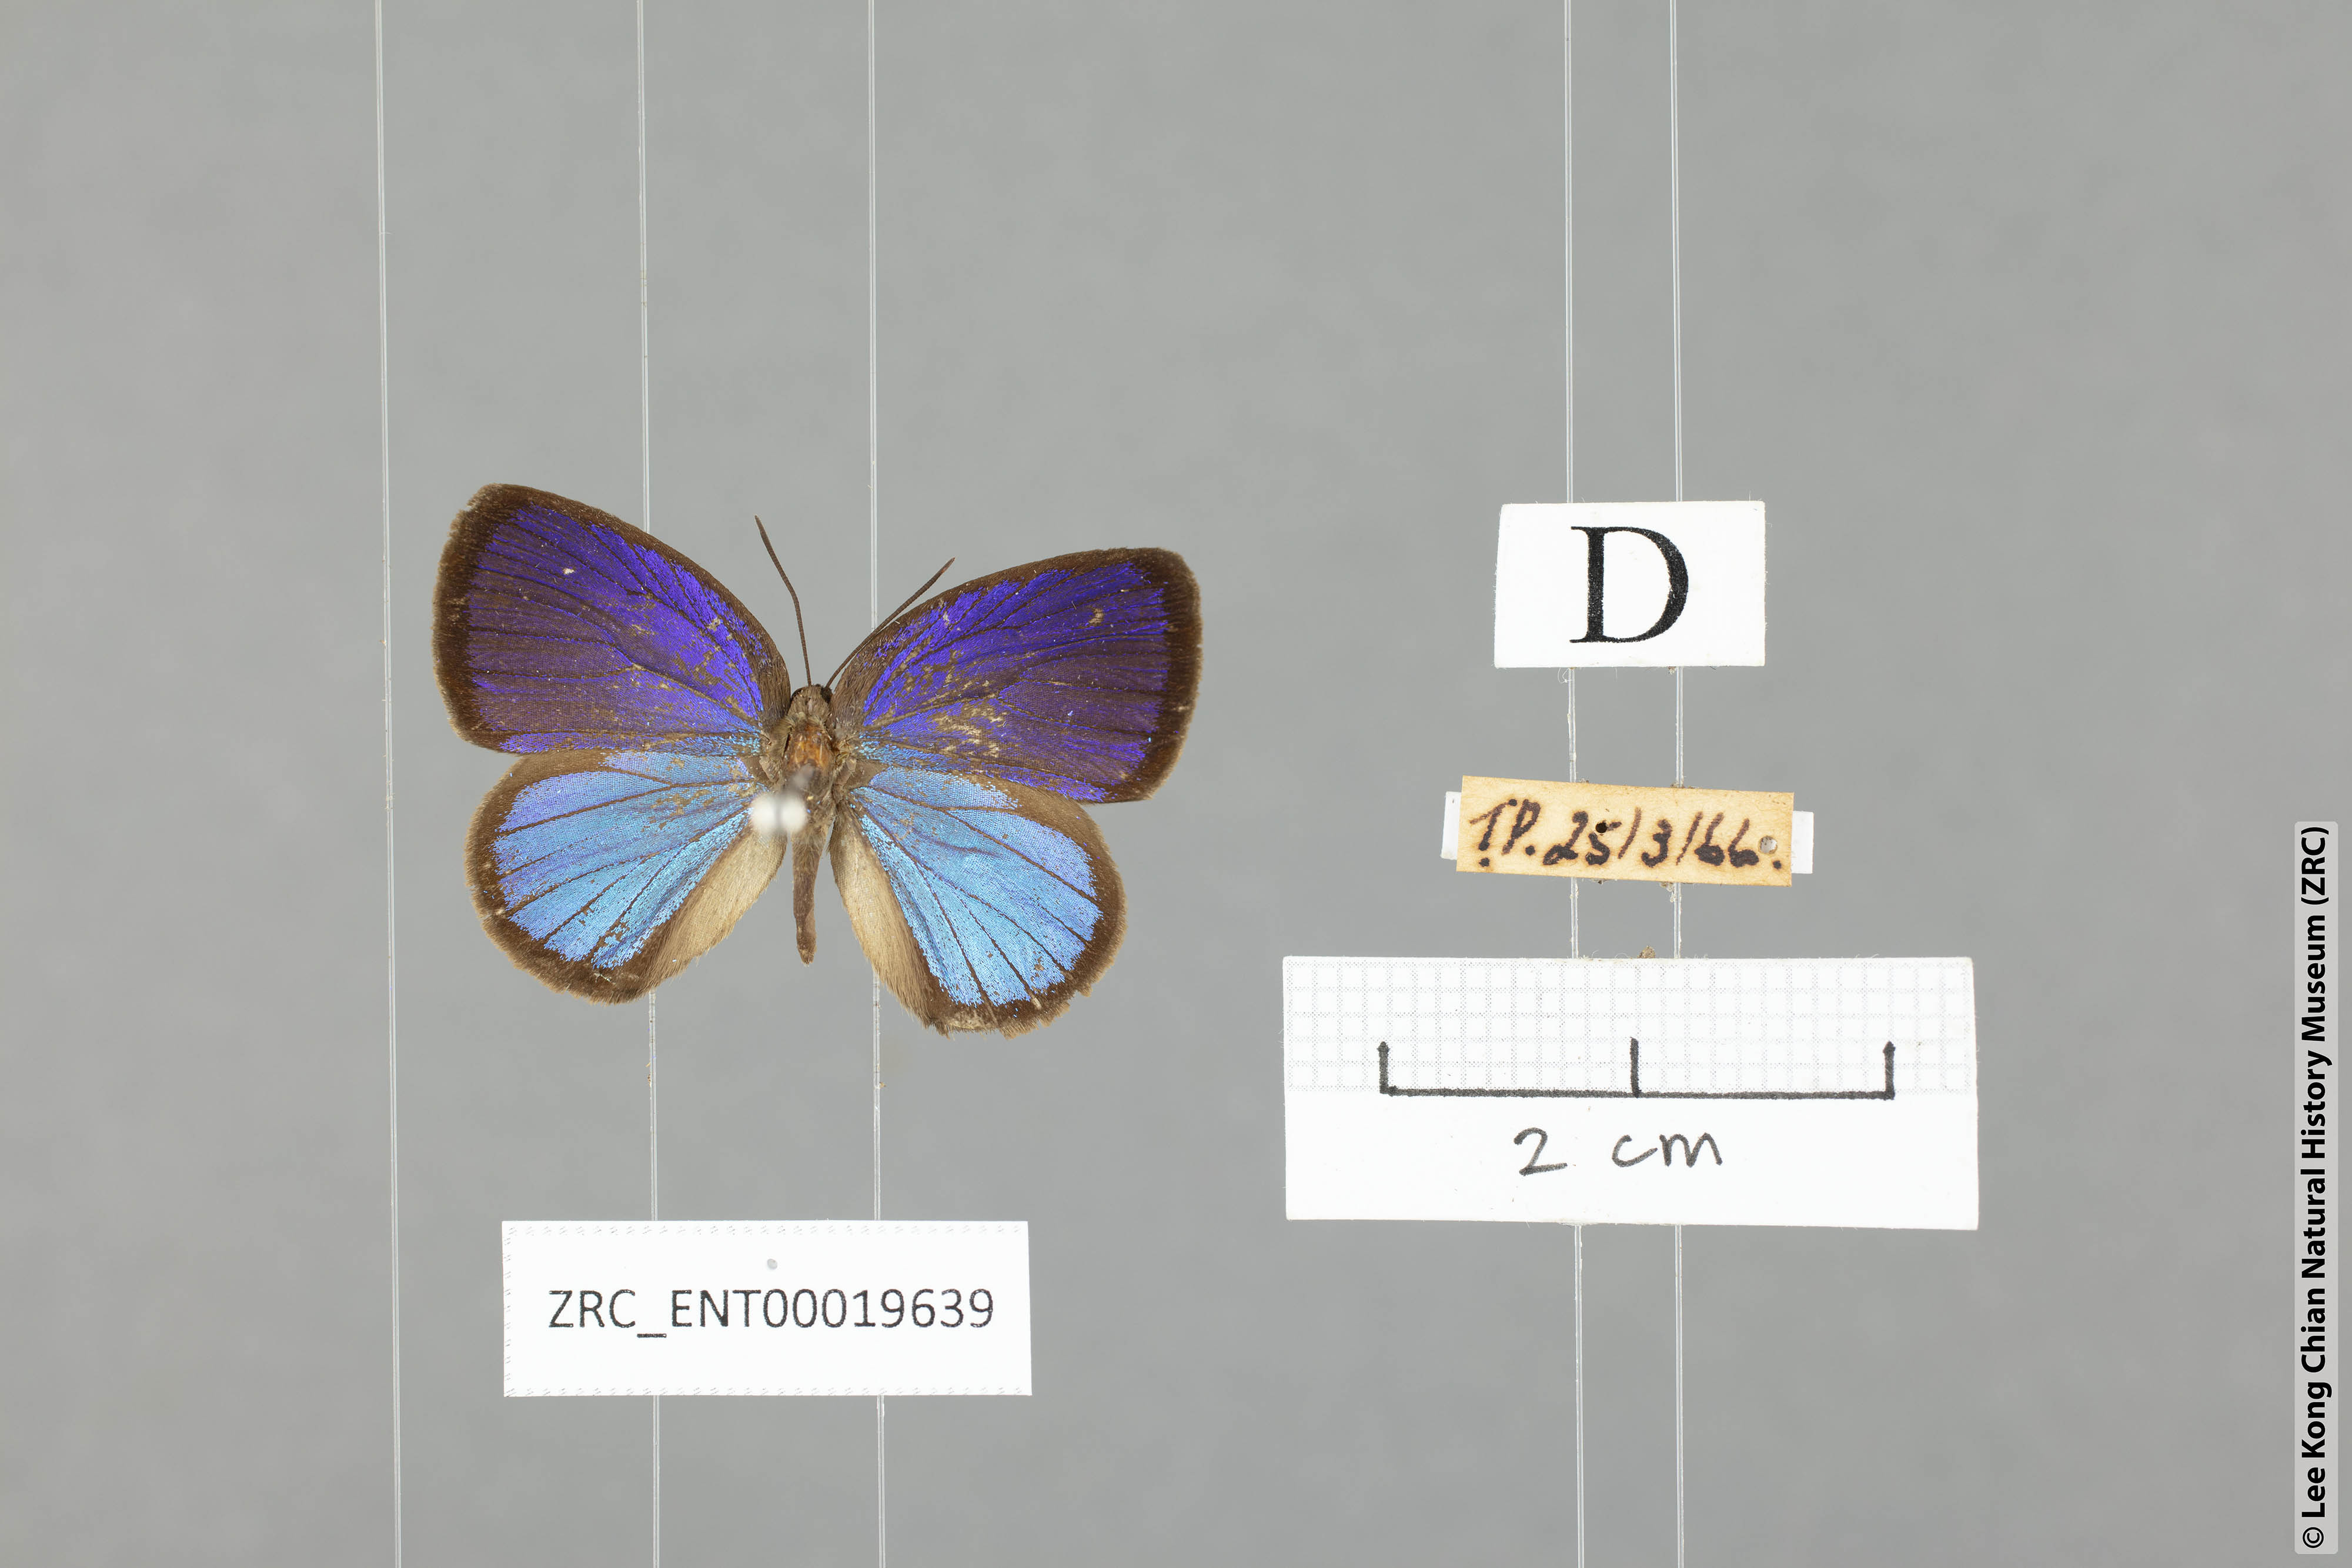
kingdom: Animalia
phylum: Arthropoda
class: Insecta
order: Lepidoptera
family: Lycaenidae
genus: Arhopala
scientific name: Arhopala metamuta
